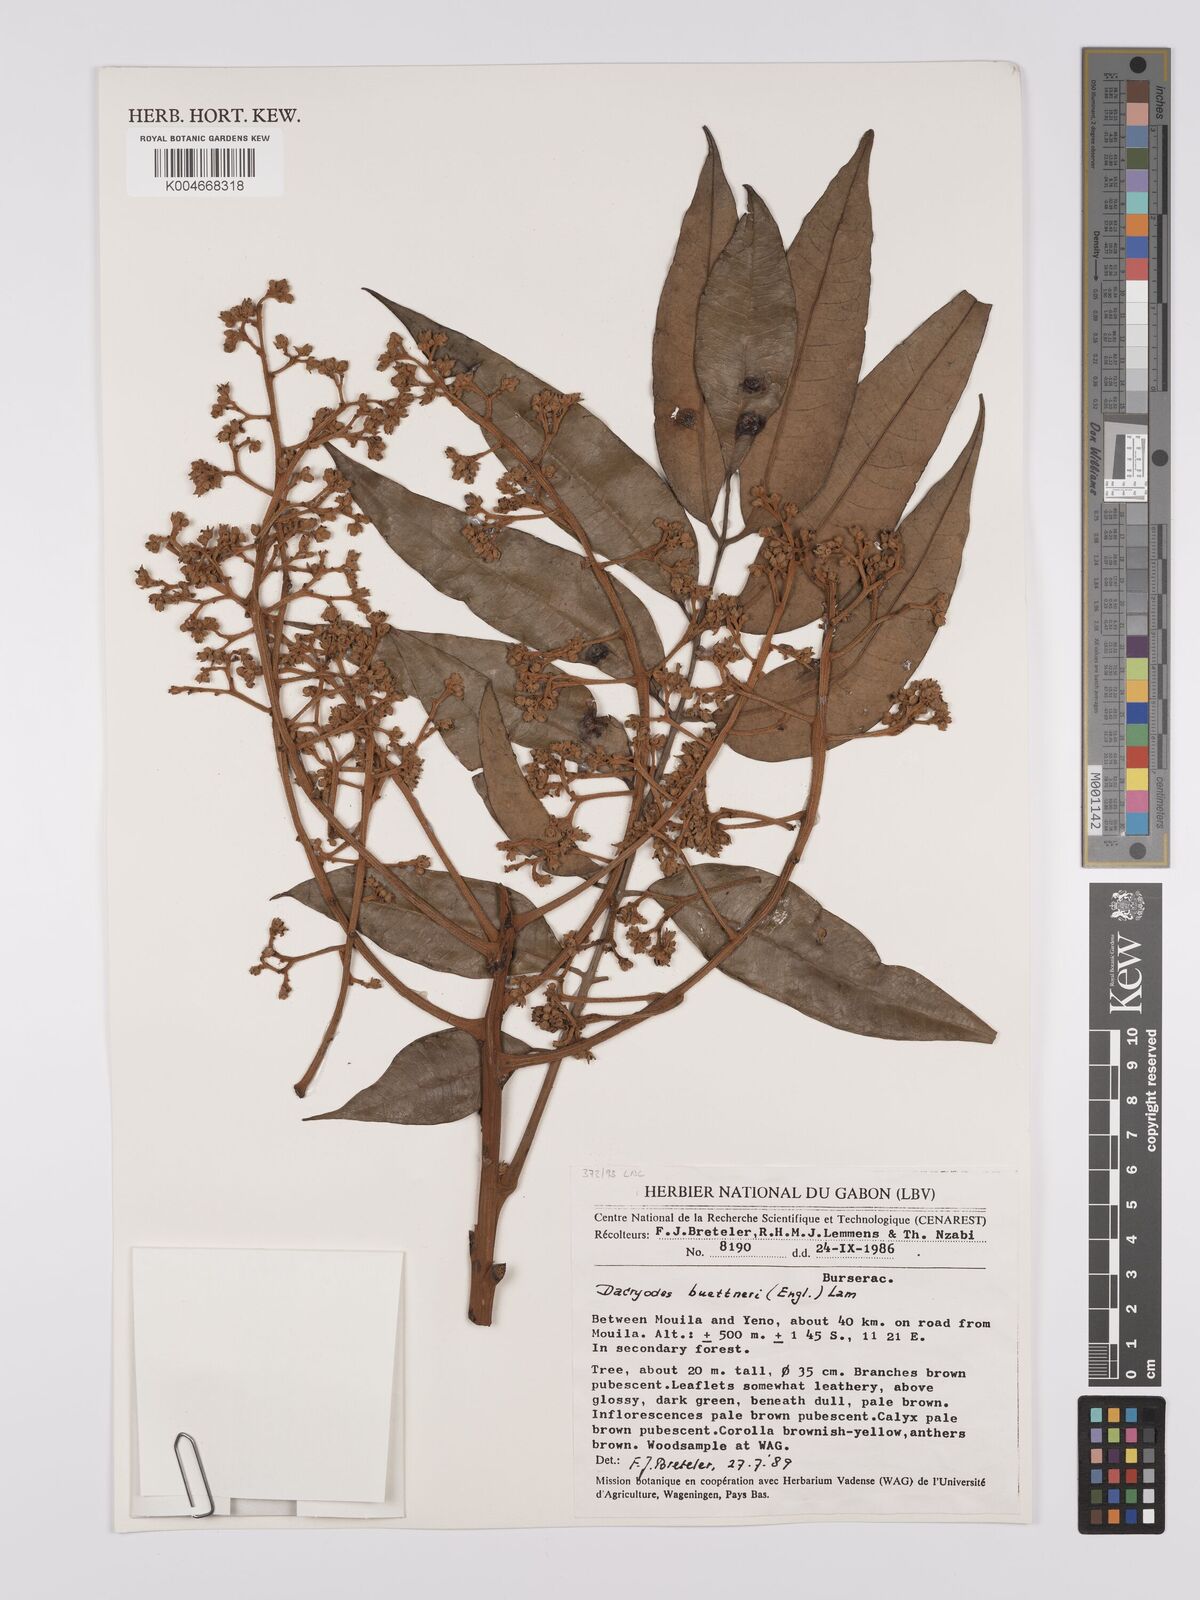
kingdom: Plantae
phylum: Tracheophyta
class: Magnoliopsida
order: Sapindales
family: Burseraceae
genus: Pachylobus
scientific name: Pachylobus buettneri
